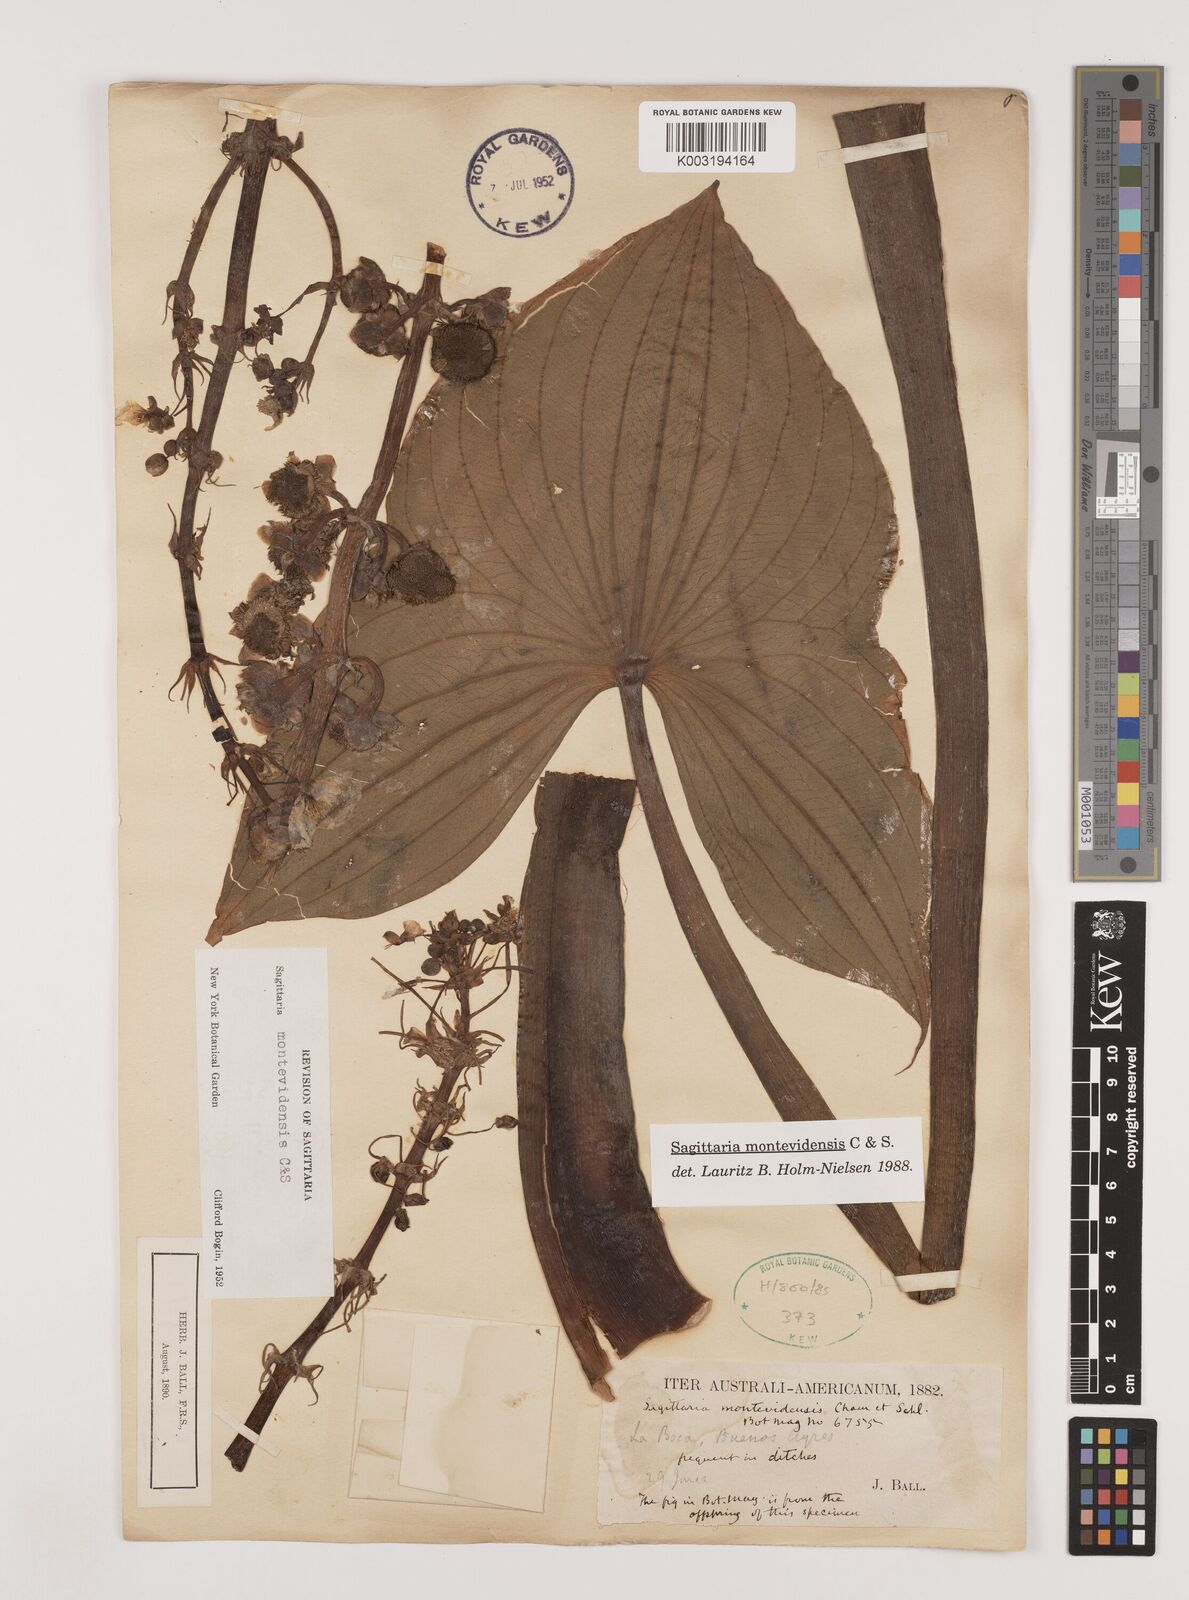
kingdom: Plantae
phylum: Tracheophyta
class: Liliopsida
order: Alismatales
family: Alismataceae
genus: Sagittaria
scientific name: Sagittaria montevidensis
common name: Giant arrowhead
